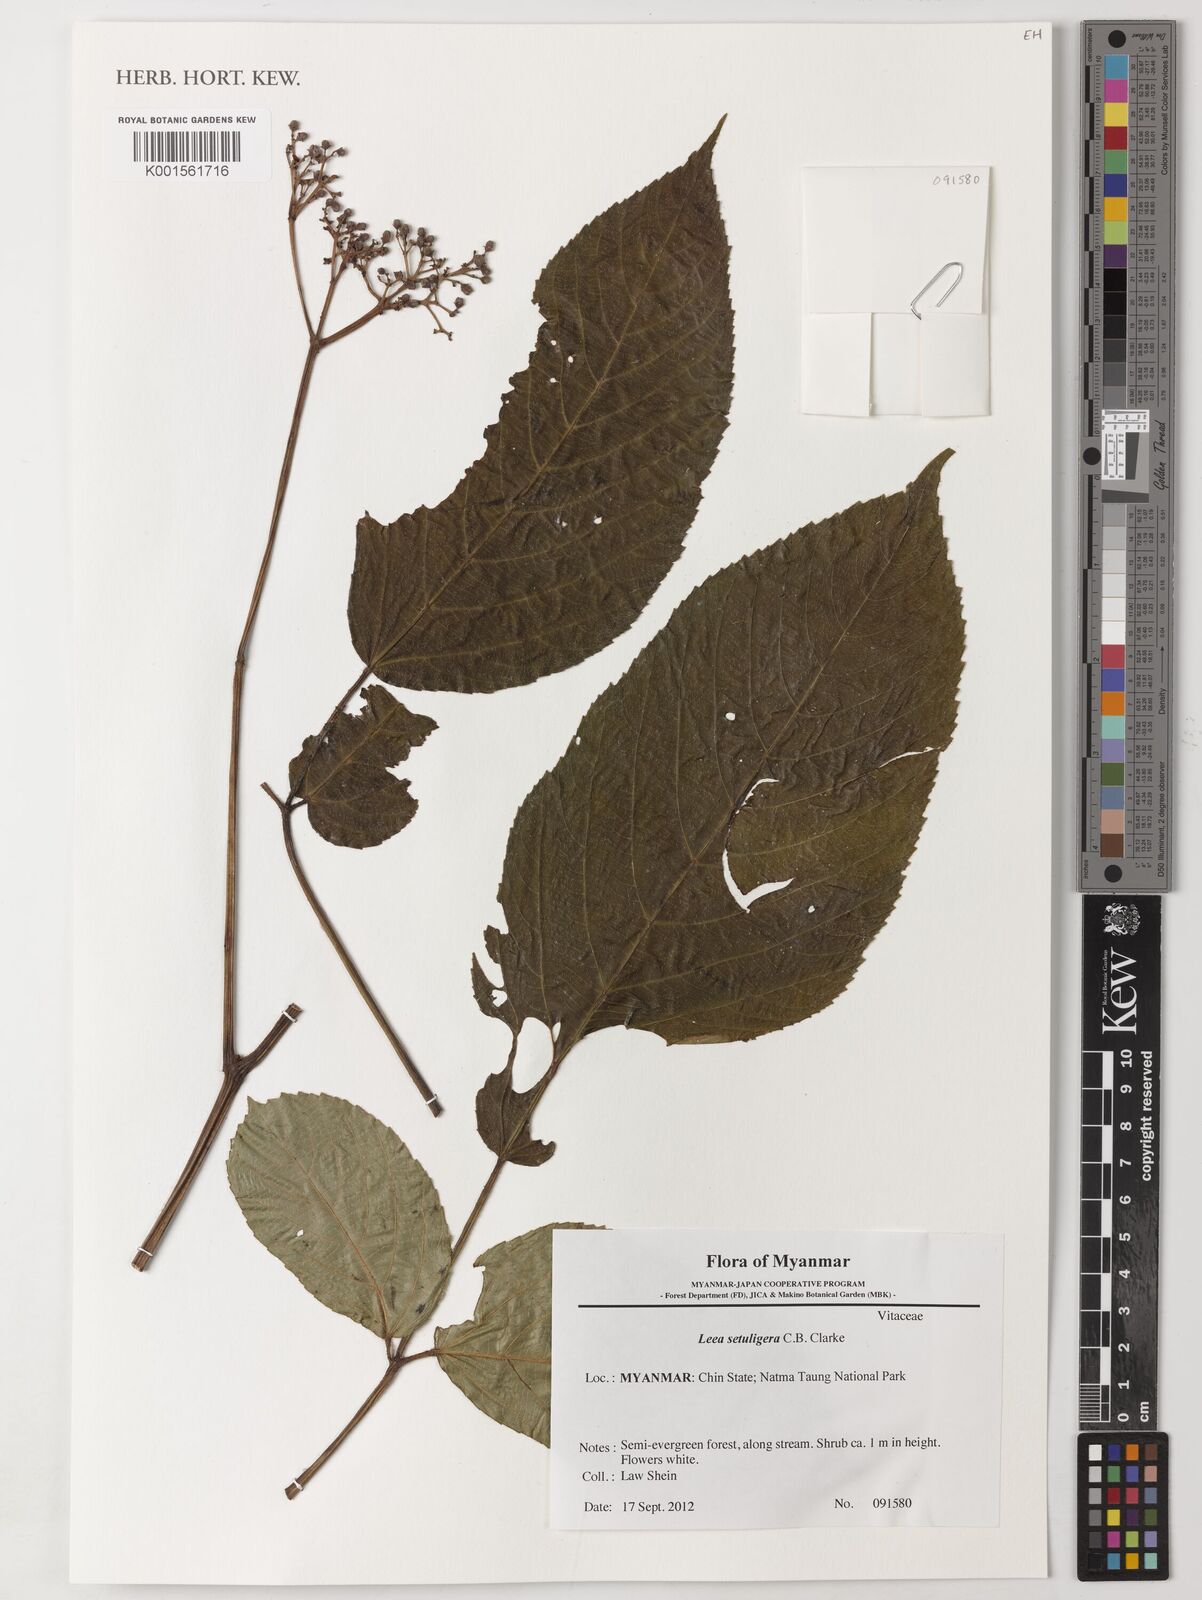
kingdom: Plantae
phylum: Tracheophyta
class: Magnoliopsida
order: Vitales
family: Vitaceae
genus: Leea
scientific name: Leea setuligera
